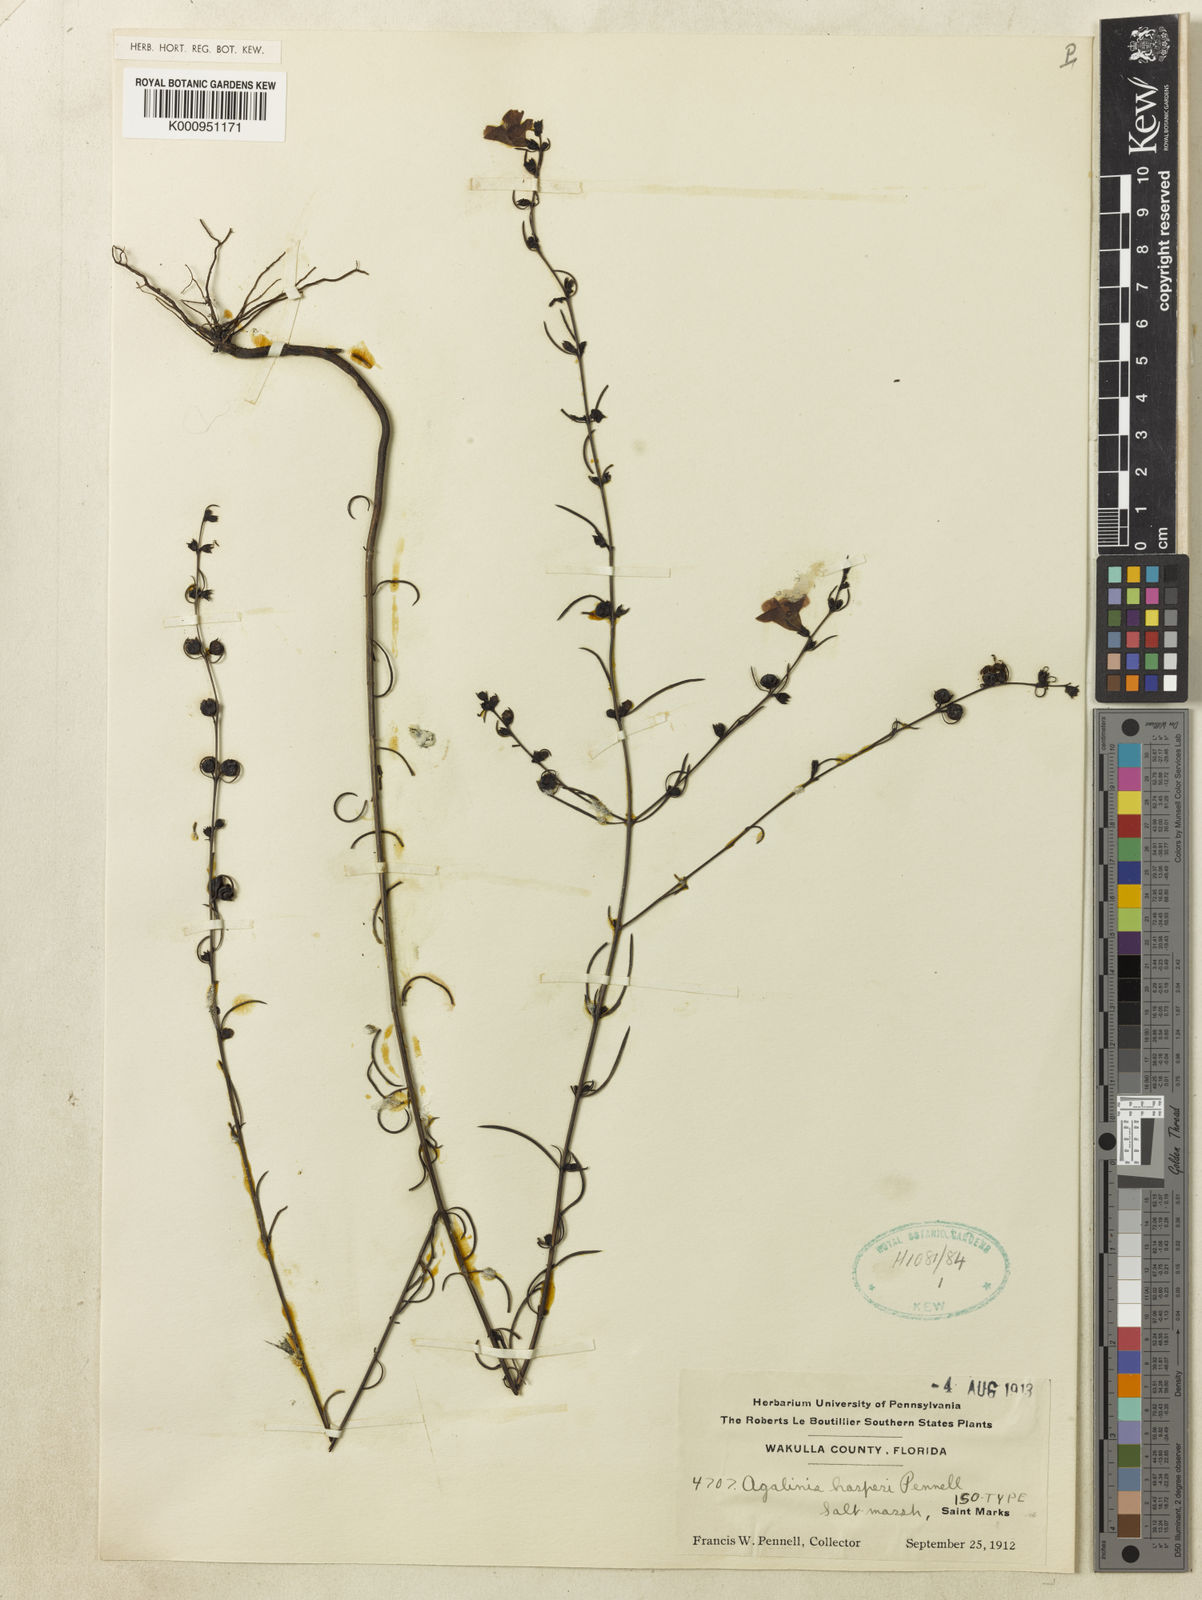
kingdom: Plantae
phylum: Tracheophyta
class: Magnoliopsida
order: Lamiales
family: Orobanchaceae
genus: Agalinis
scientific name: Agalinis harperi
